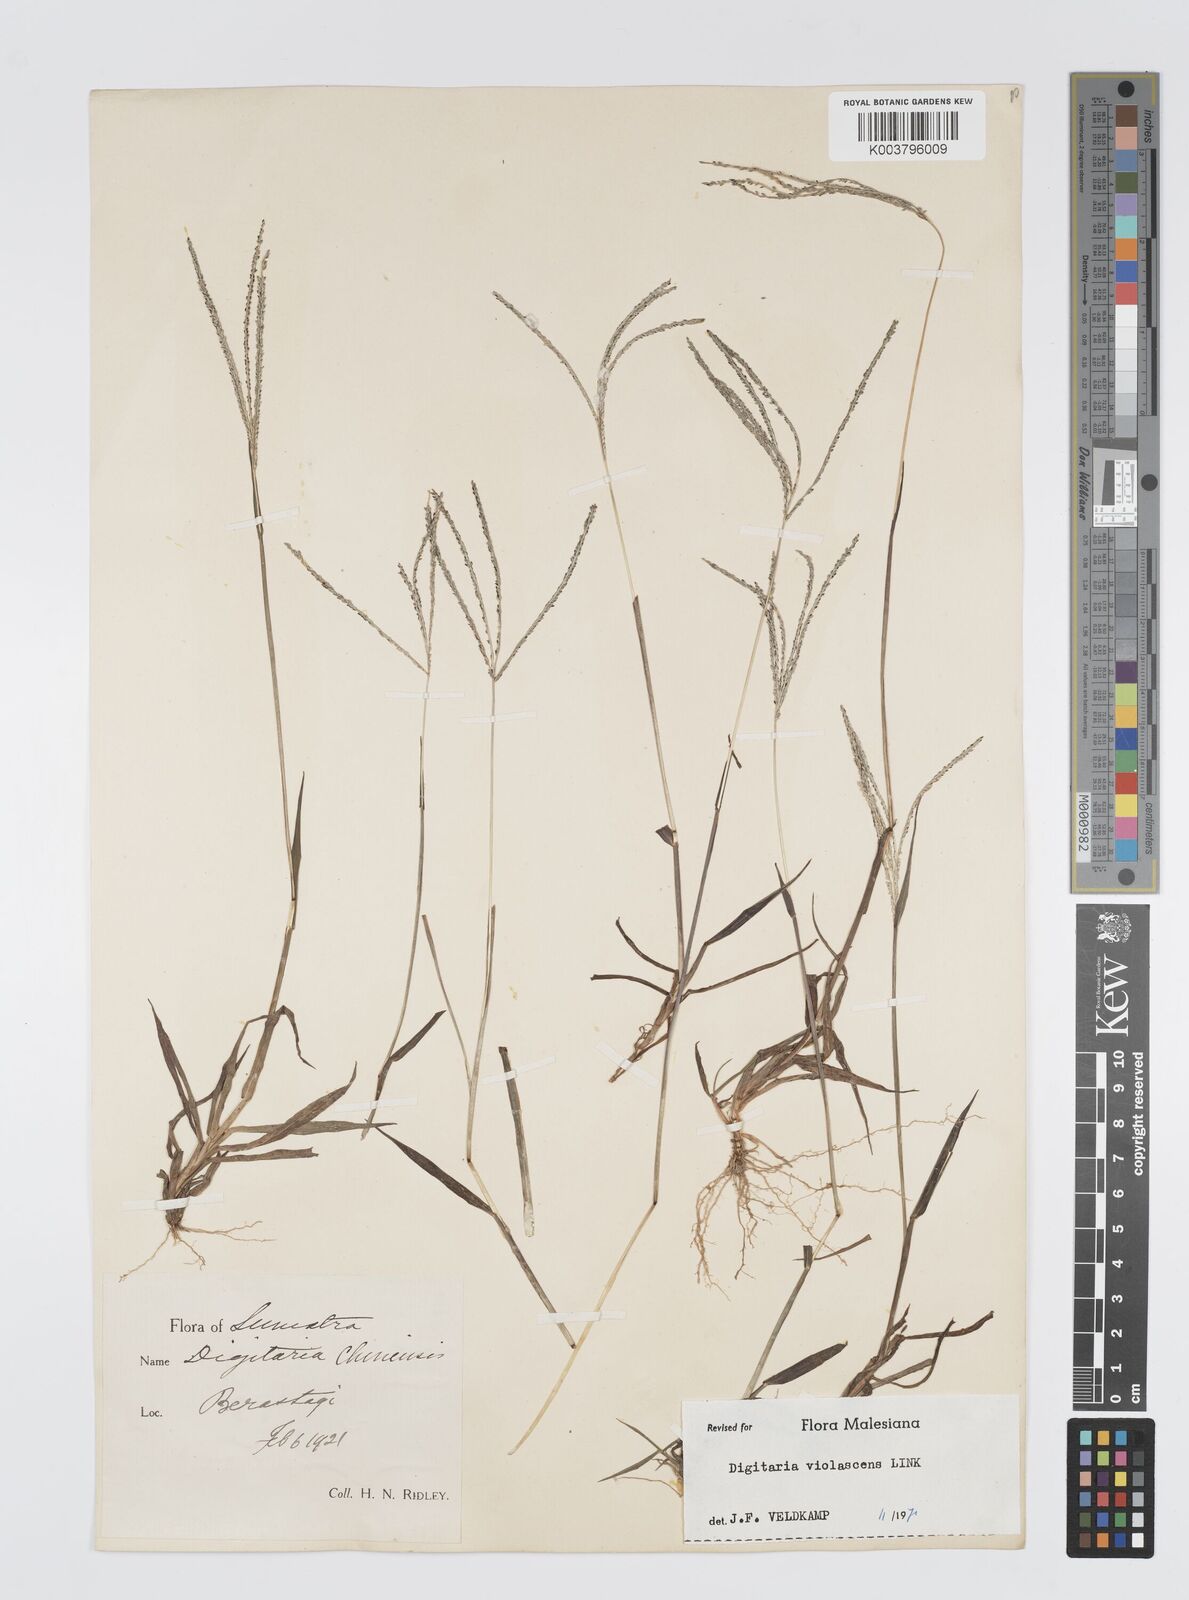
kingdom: Plantae
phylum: Tracheophyta
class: Liliopsida
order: Poales
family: Poaceae
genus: Digitaria
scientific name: Digitaria violascens
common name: Violet crabgrass
